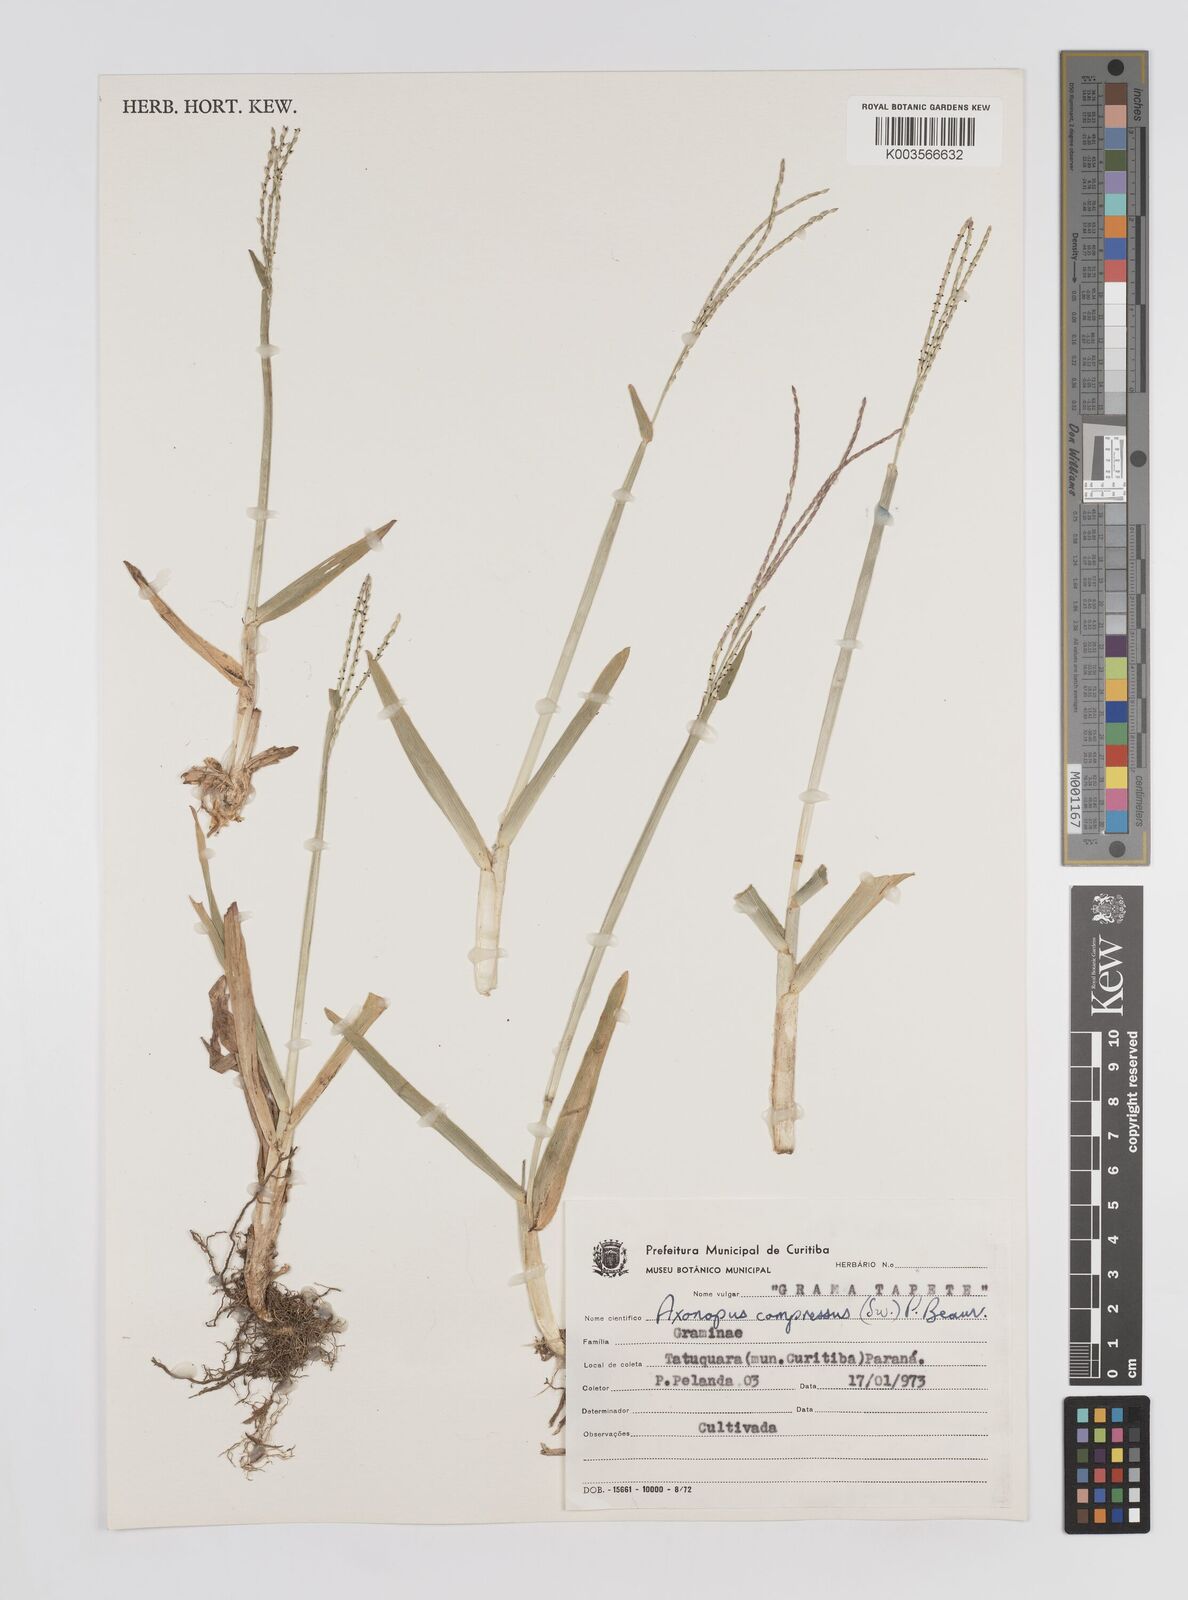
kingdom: Plantae
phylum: Tracheophyta
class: Liliopsida
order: Poales
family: Poaceae
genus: Axonopus
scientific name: Axonopus compressus
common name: American carpet grass
